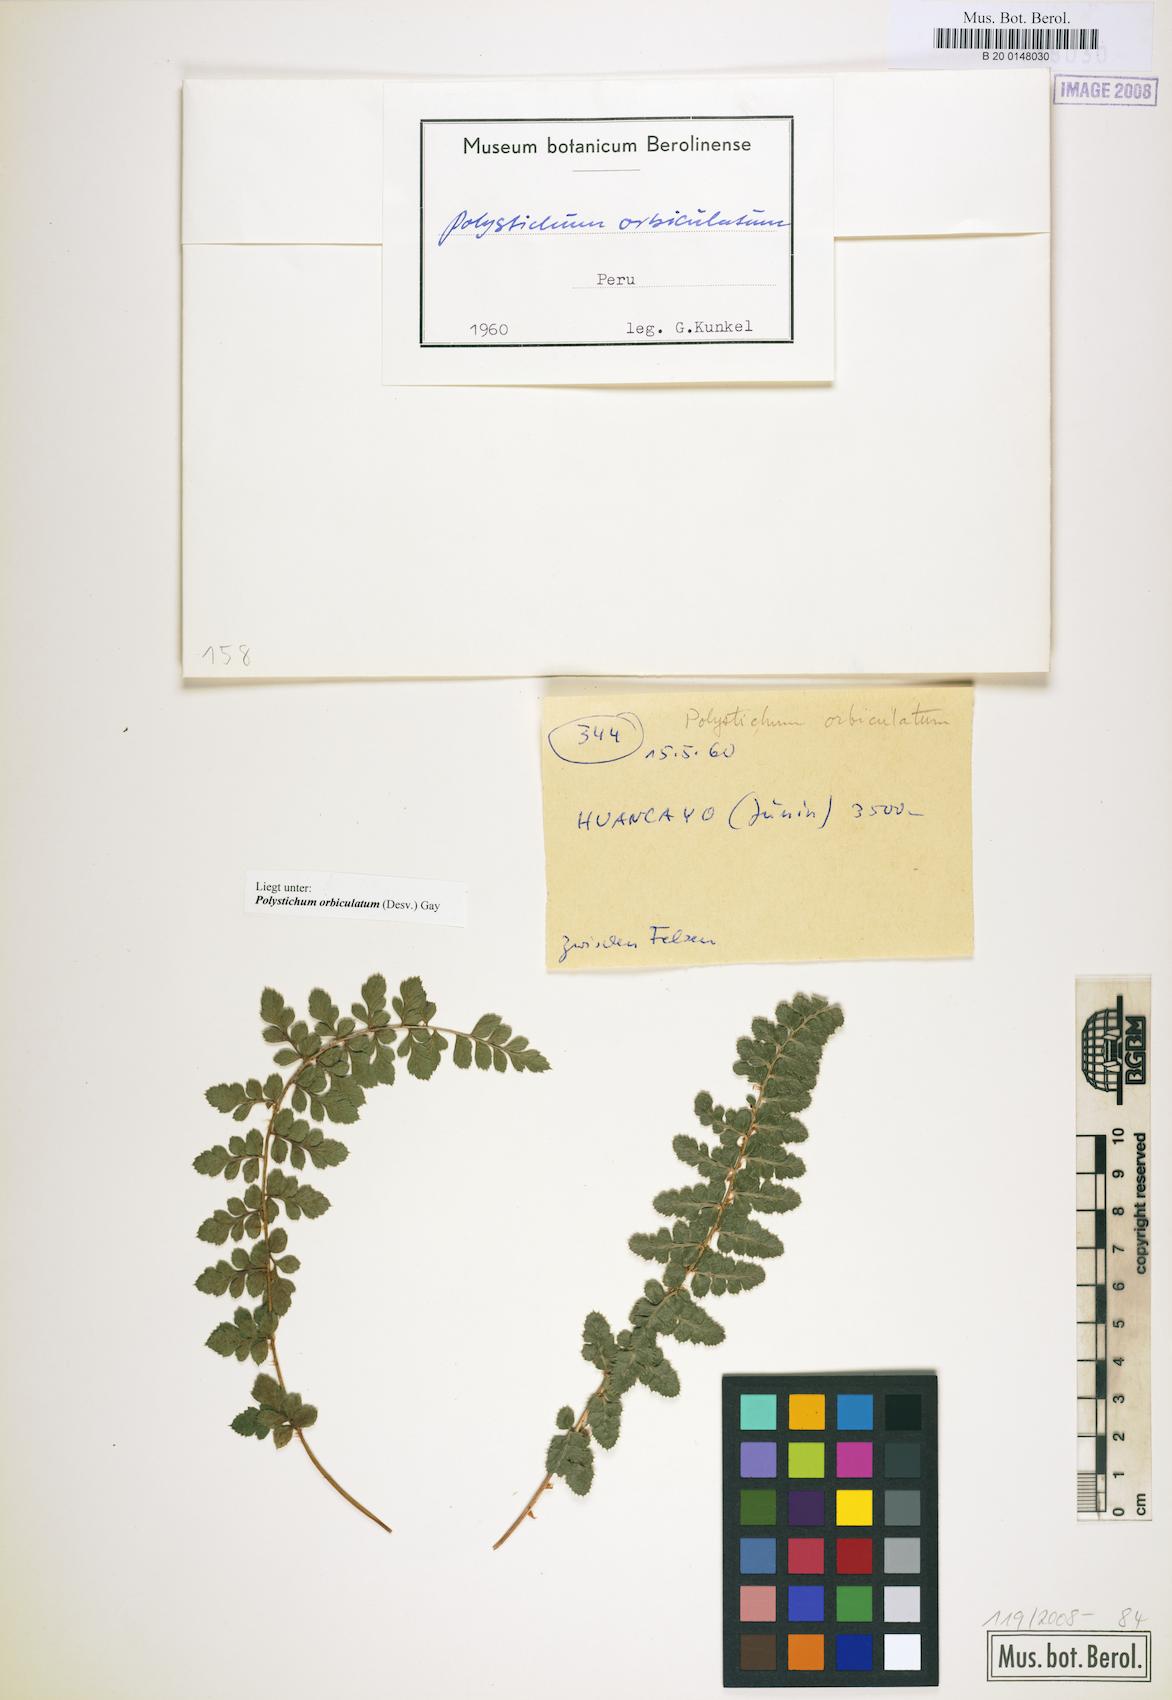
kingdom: Plantae
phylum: Tracheophyta
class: Polypodiopsida
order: Polypodiales
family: Dryopteridaceae
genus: Polystichum
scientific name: Polystichum orbiculatum
